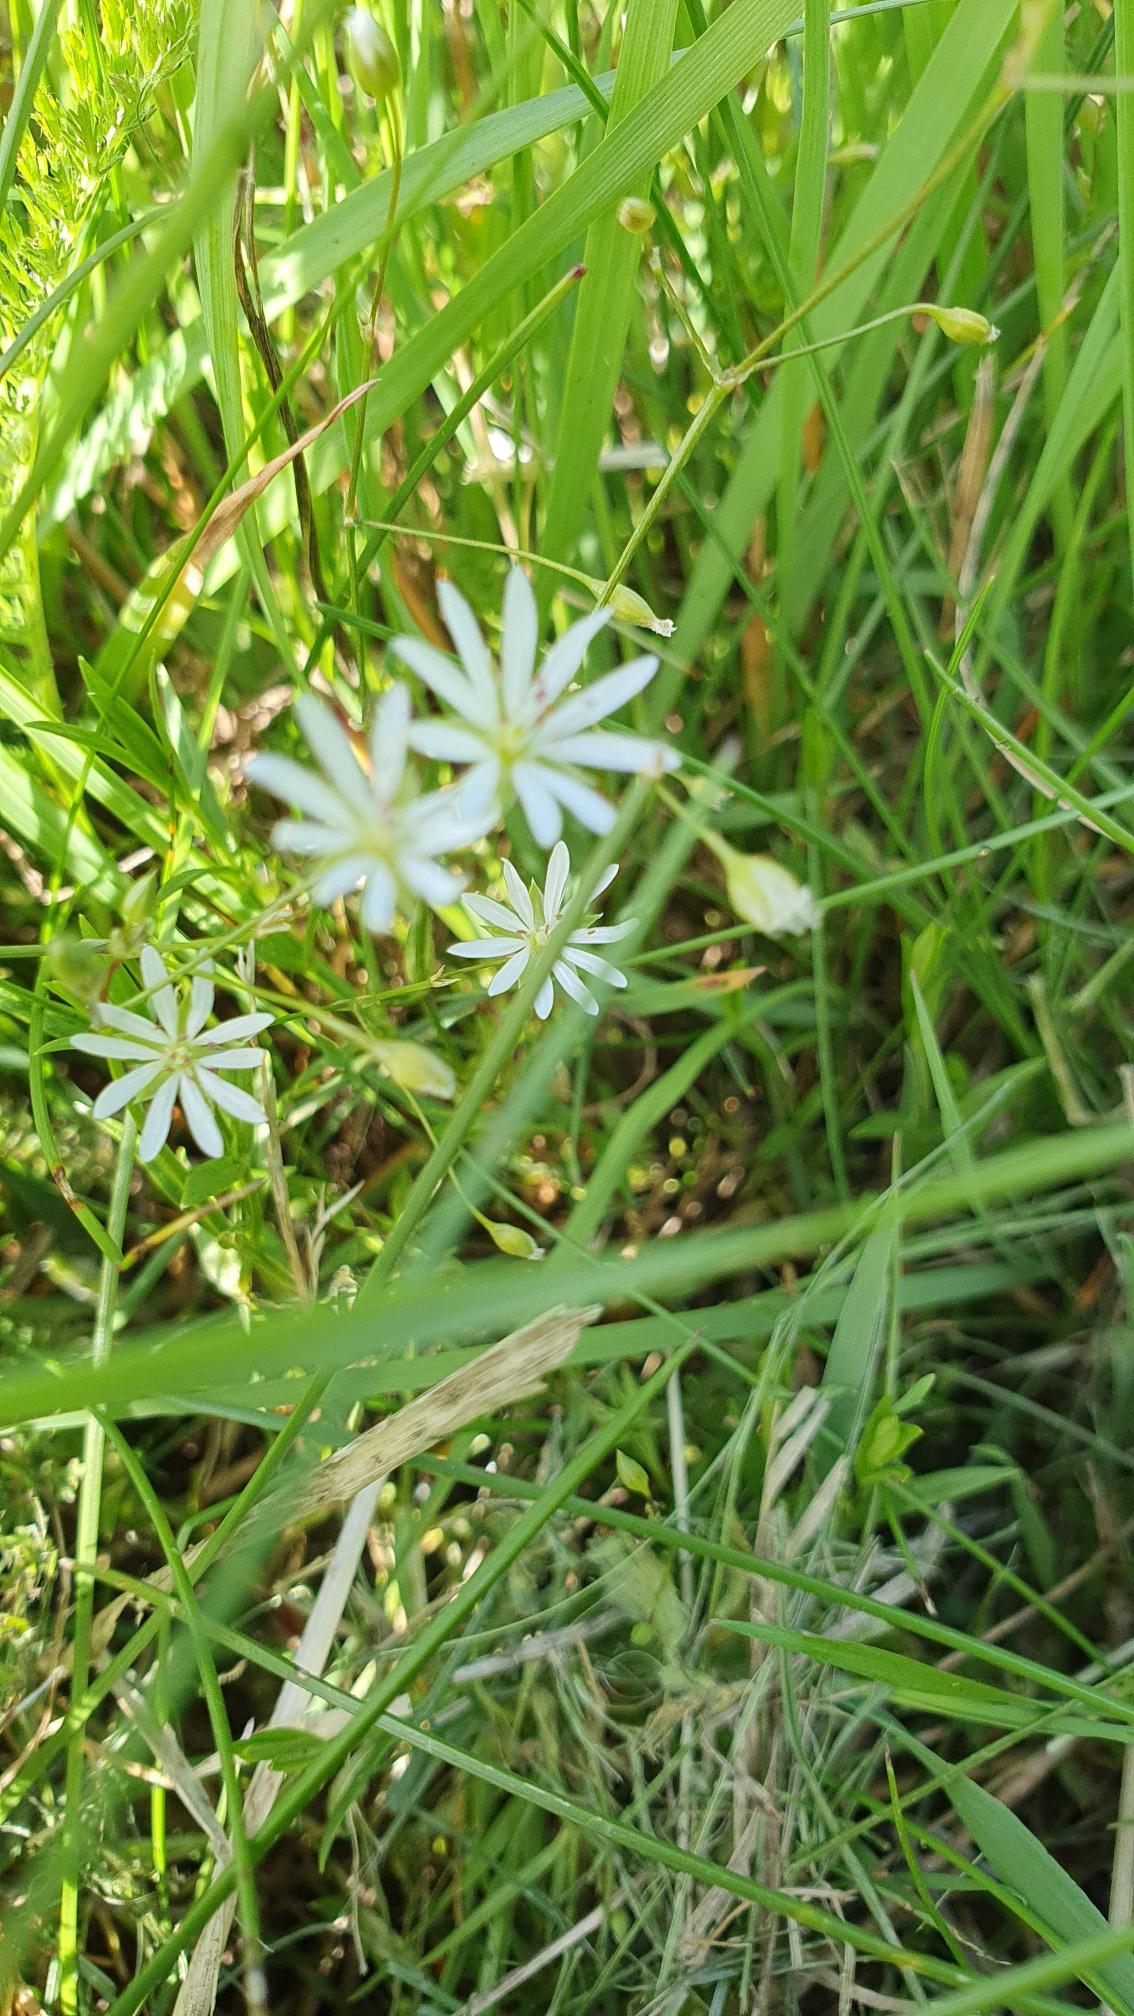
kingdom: Plantae
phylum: Tracheophyta
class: Magnoliopsida
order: Caryophyllales
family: Caryophyllaceae
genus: Stellaria
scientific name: Stellaria graminea
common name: Græsbladet fladstjerne
